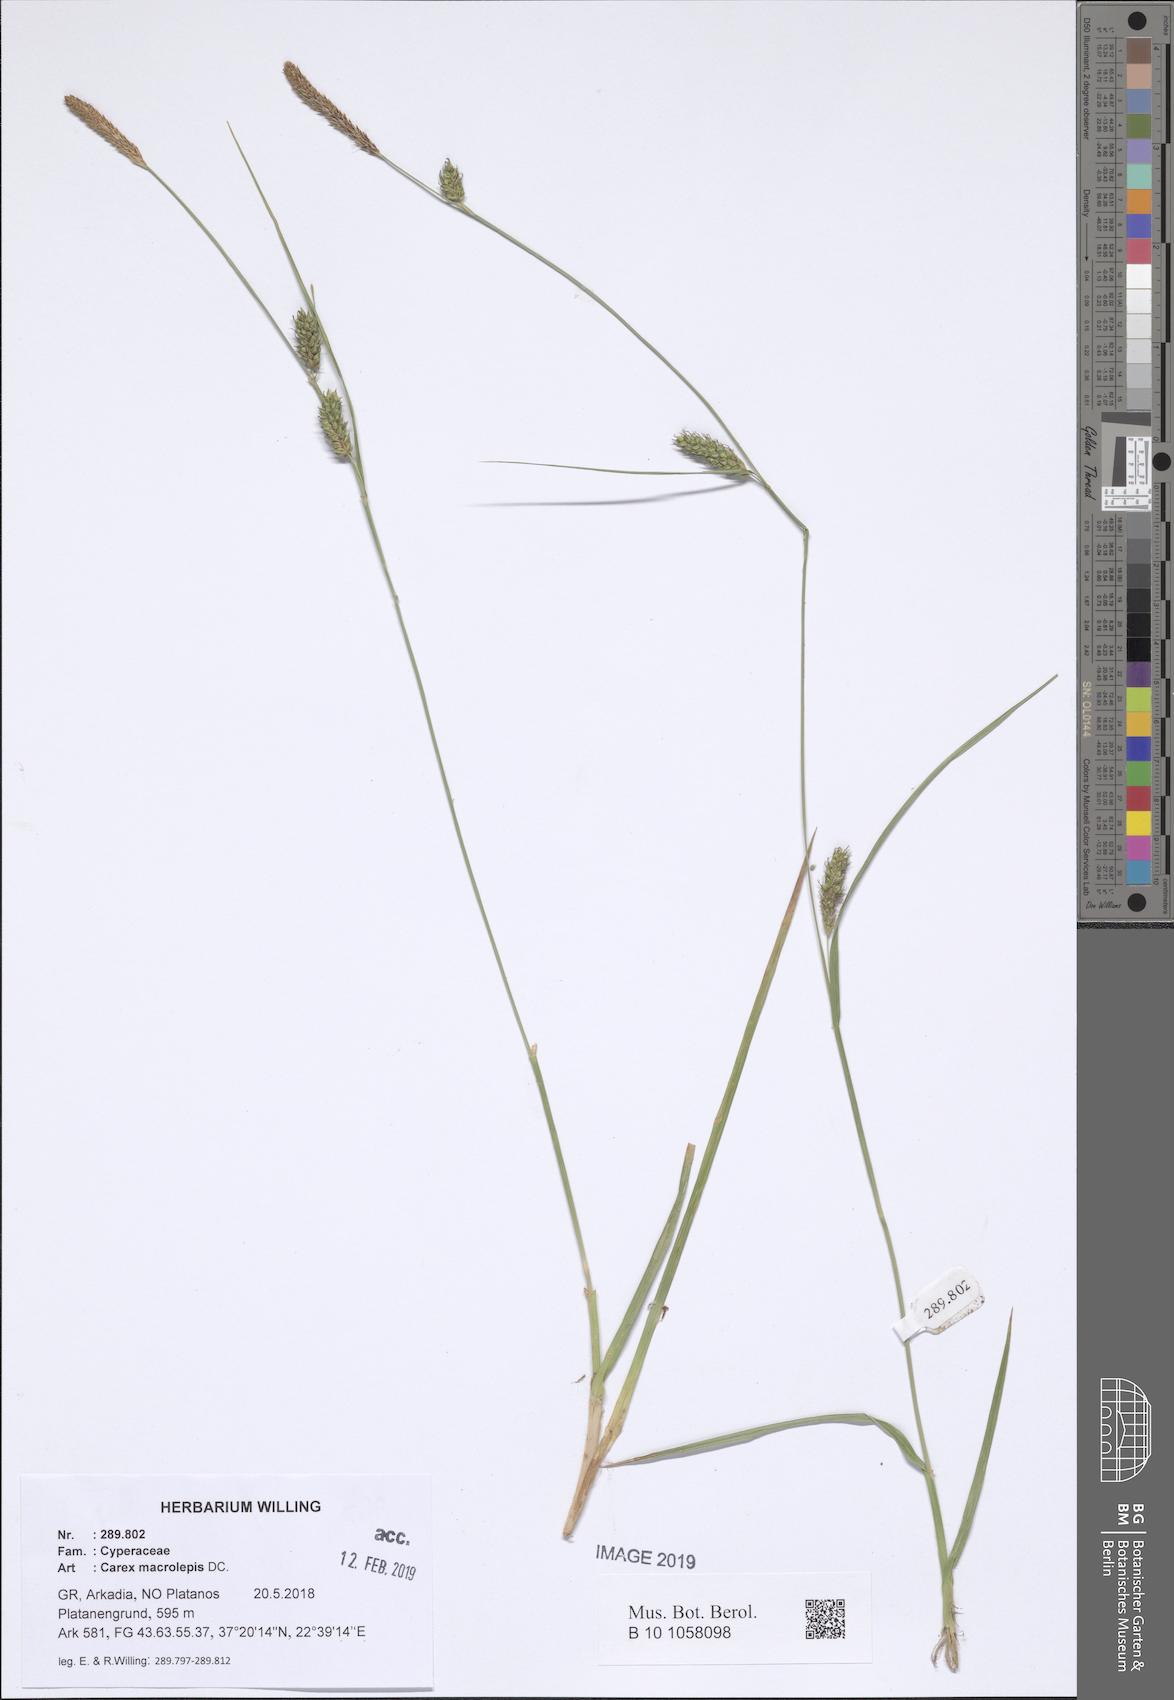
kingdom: Plantae
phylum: Tracheophyta
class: Liliopsida
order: Poales
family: Cyperaceae
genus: Carex
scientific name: Carex macrolepis
